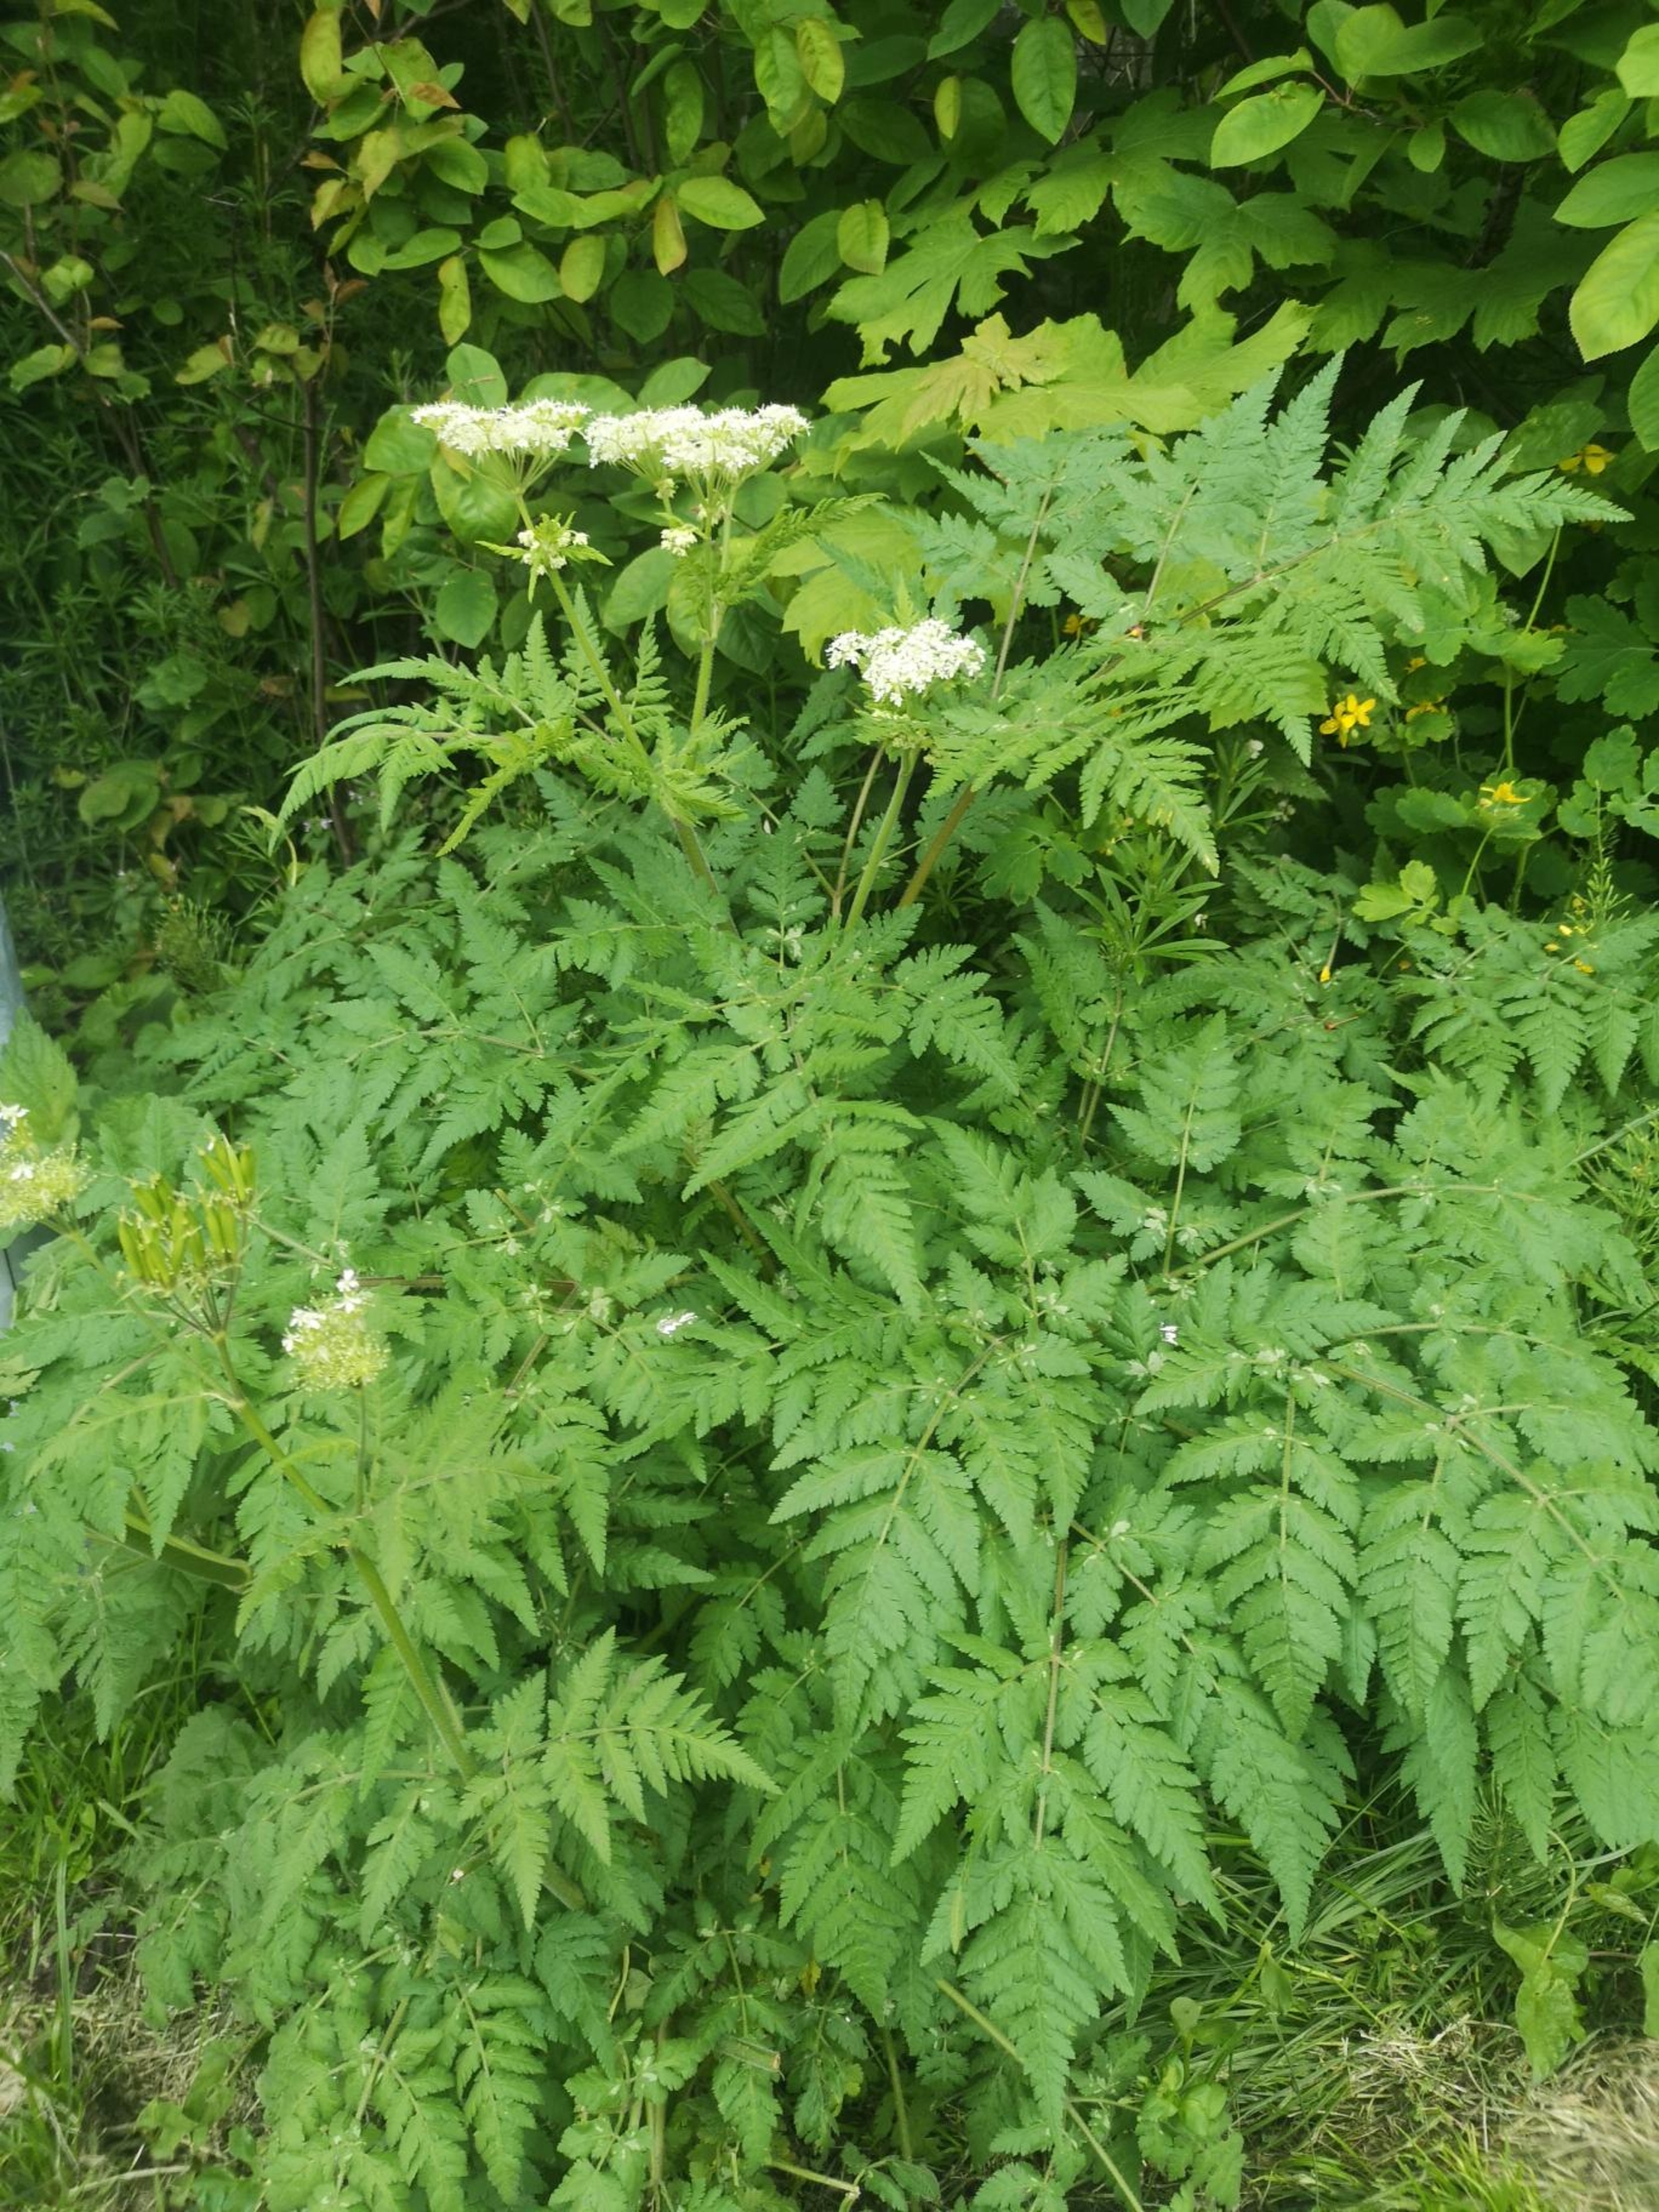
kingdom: Plantae
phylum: Tracheophyta
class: Magnoliopsida
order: Apiales
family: Apiaceae
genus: Myrrhis
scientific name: Myrrhis odorata
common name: Sødskærm
